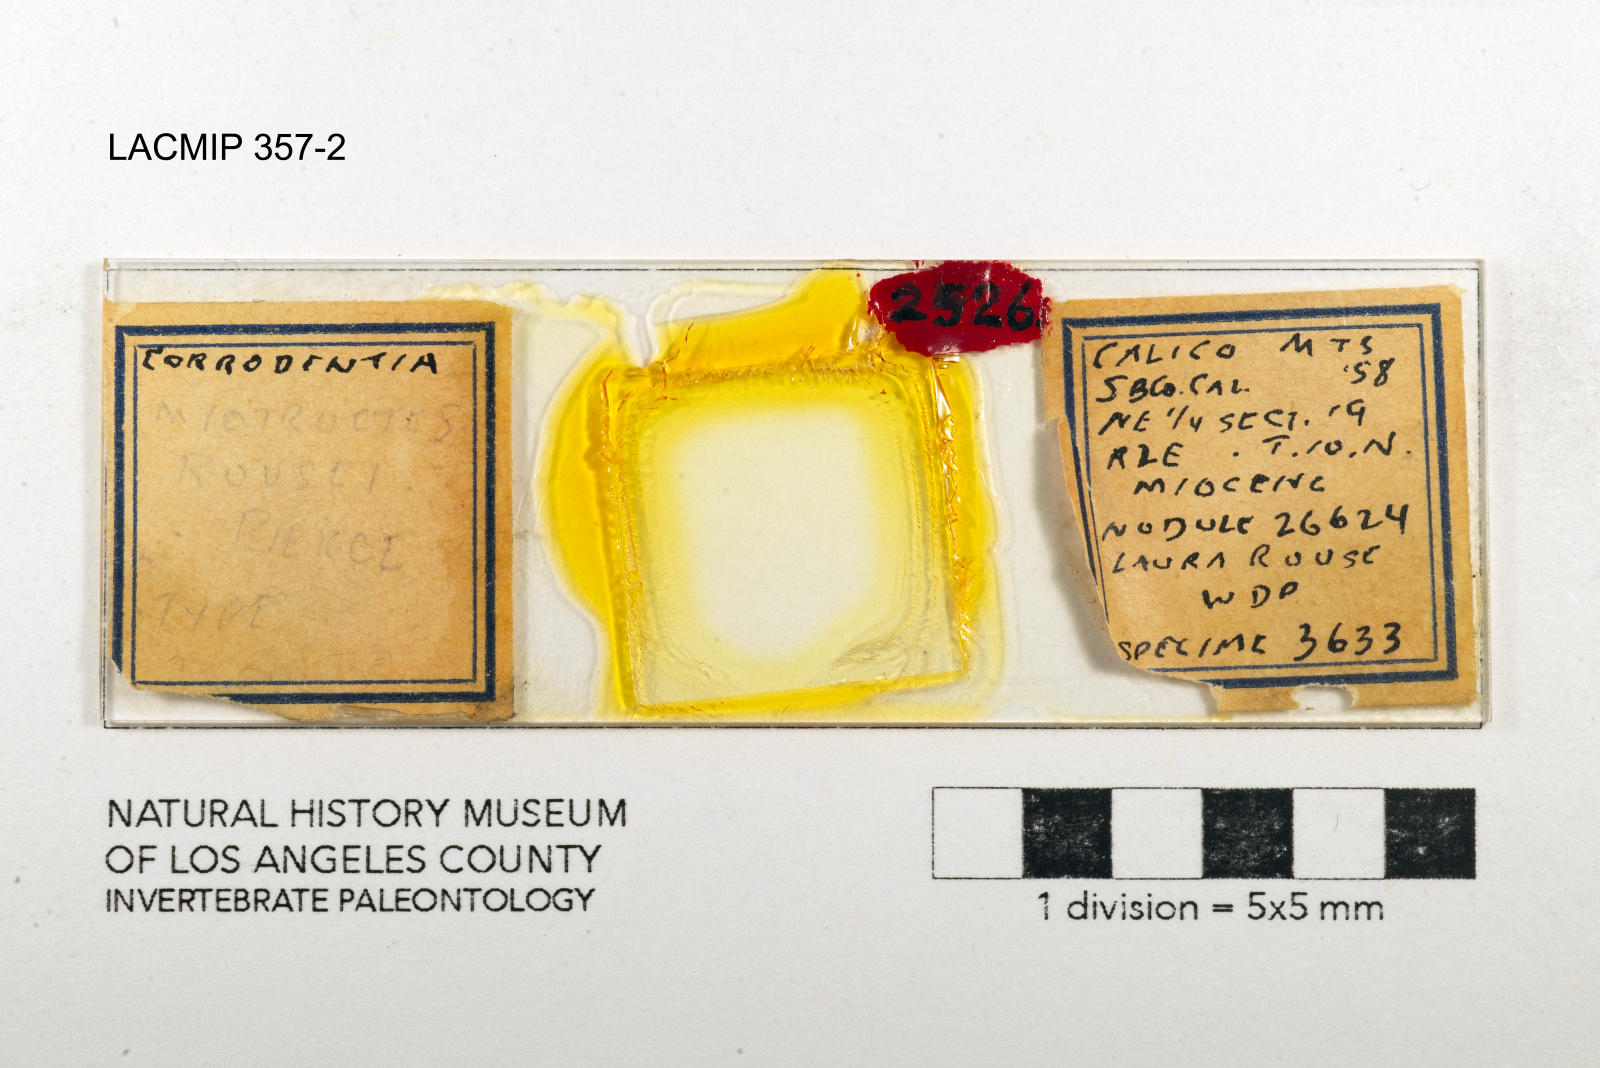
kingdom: Animalia
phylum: Arthropoda
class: Insecta
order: Psocodea
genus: Miotroctes
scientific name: Miotroctes rousei
